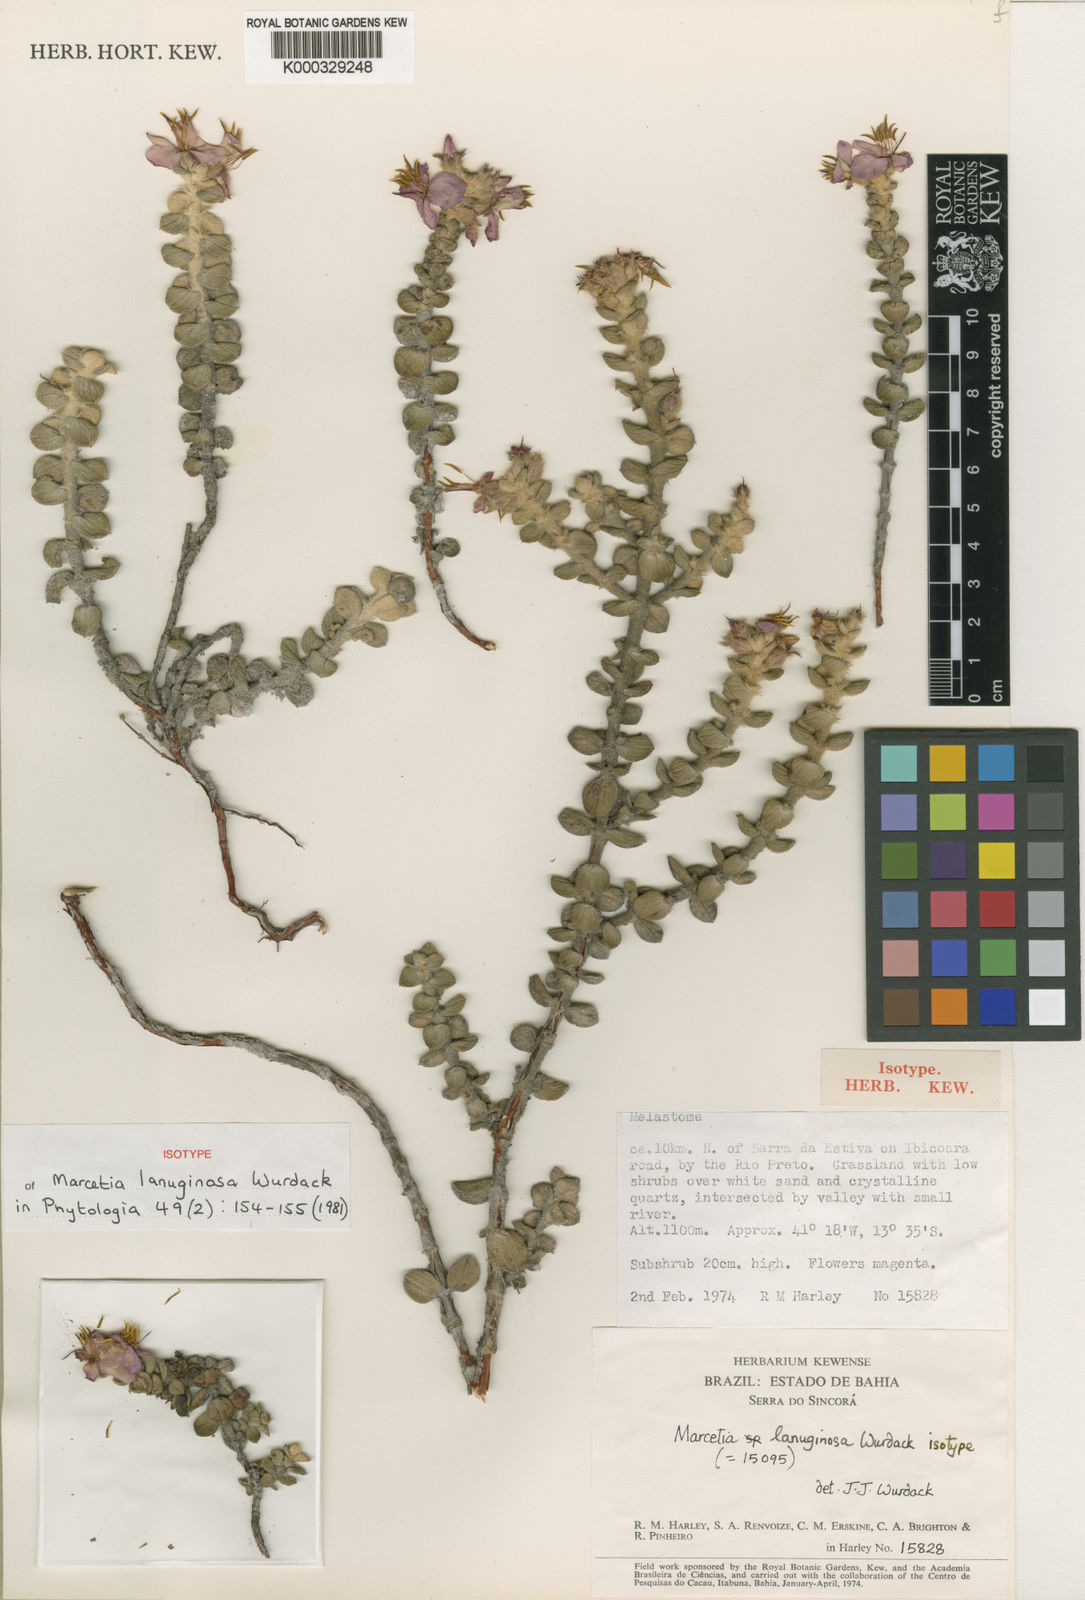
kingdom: Plantae
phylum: Tracheophyta
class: Magnoliopsida
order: Myrtales
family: Melastomataceae
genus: Marcetia
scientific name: Marcetia lanuginosa
